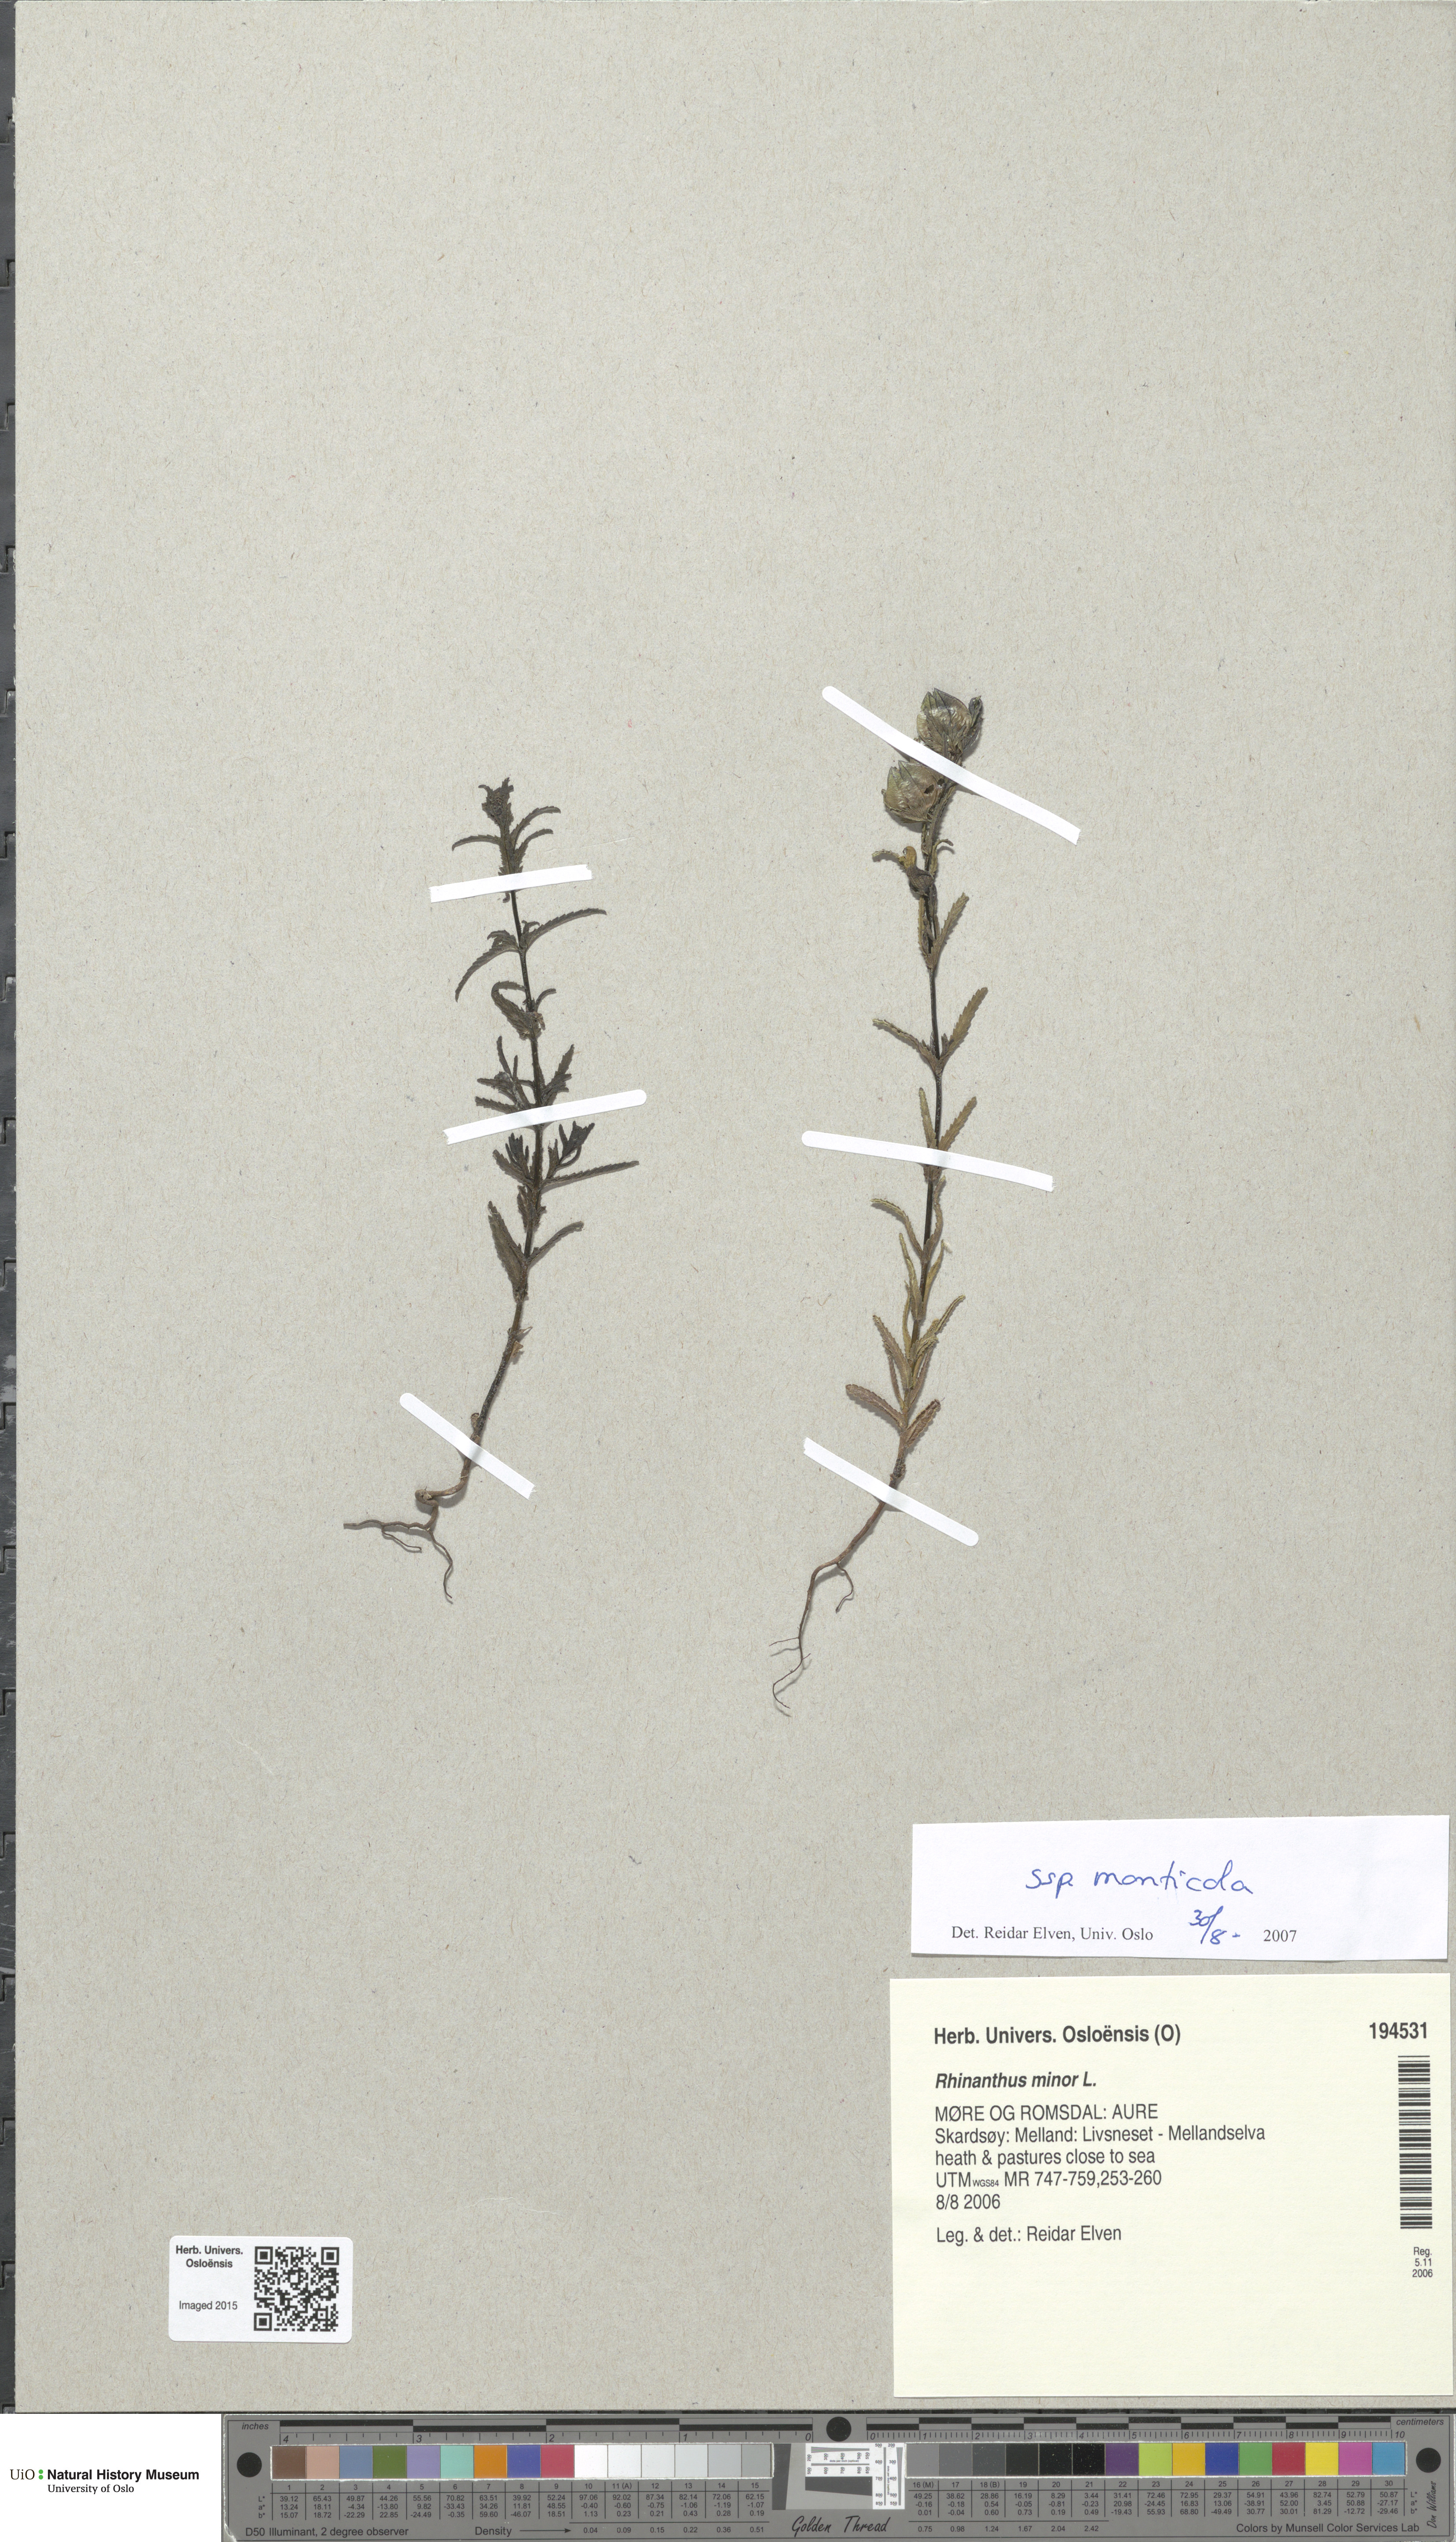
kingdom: Plantae
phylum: Tracheophyta
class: Magnoliopsida
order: Lamiales
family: Orobanchaceae
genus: Rhinanthus
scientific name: Rhinanthus minor
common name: Yellow-rattle
